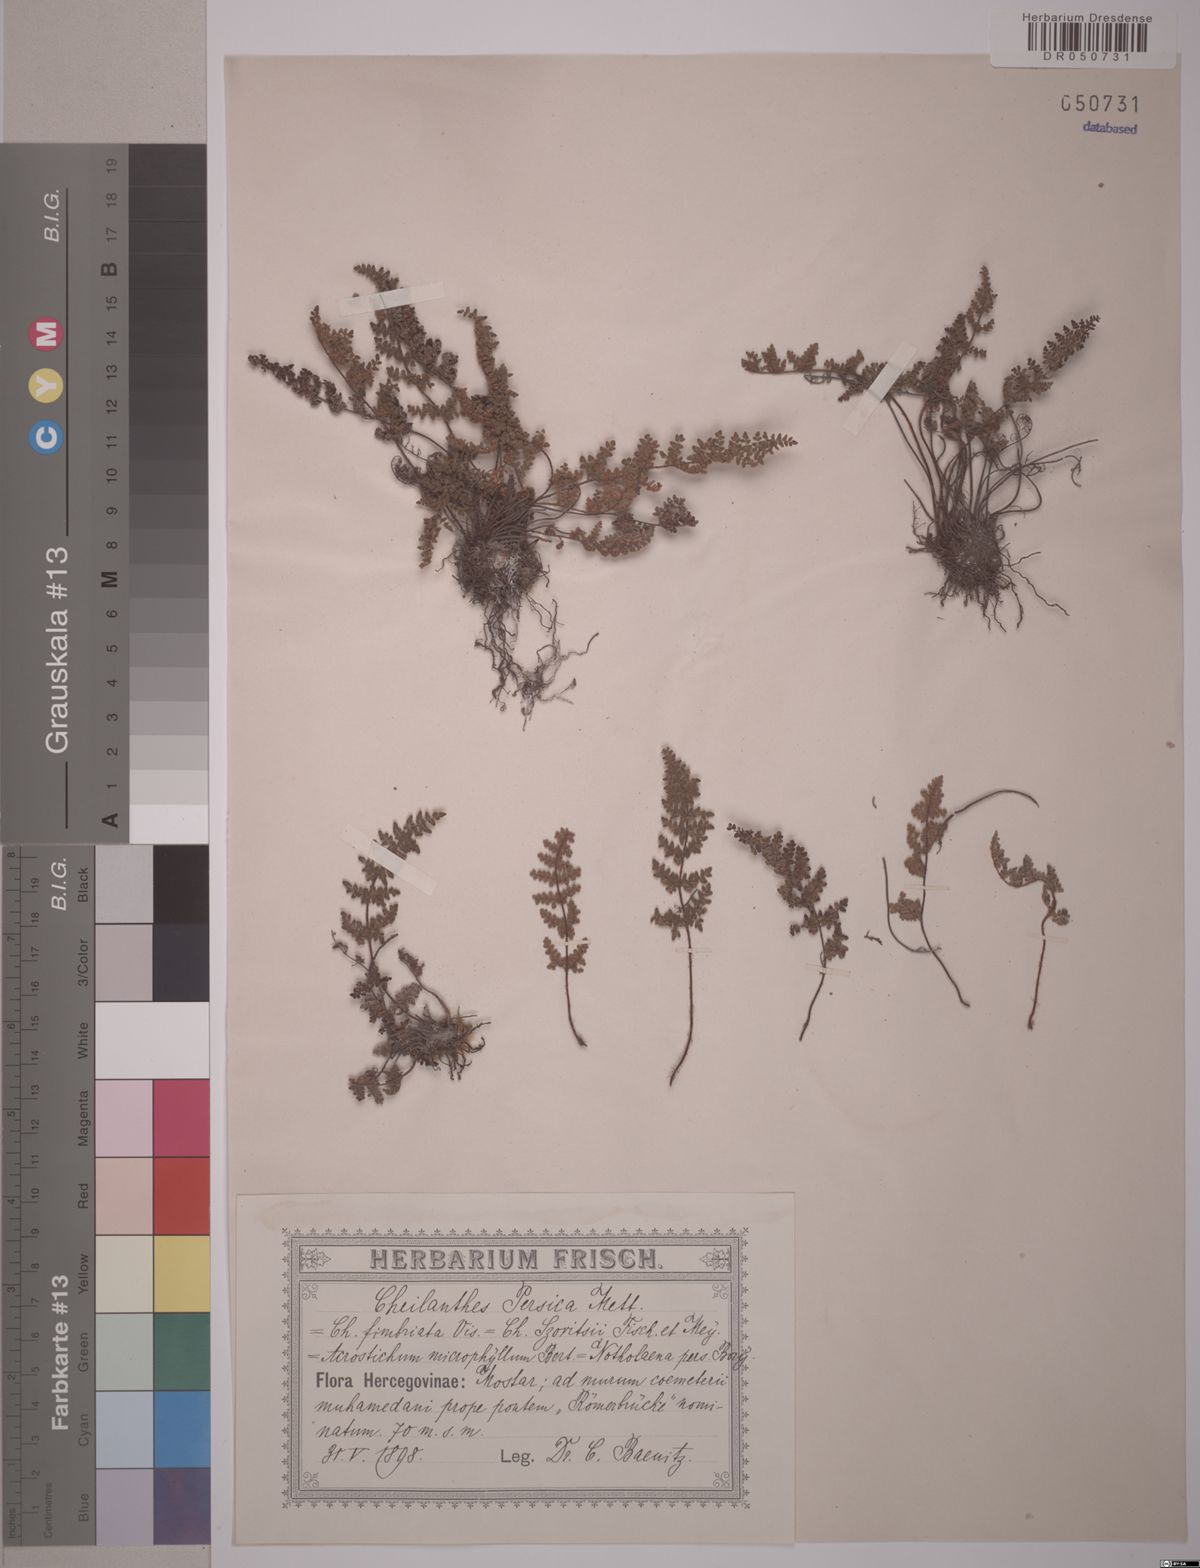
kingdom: Plantae
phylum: Tracheophyta
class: Polypodiopsida
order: Polypodiales
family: Pteridaceae
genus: Oeosporangium
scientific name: Oeosporangium persicum
